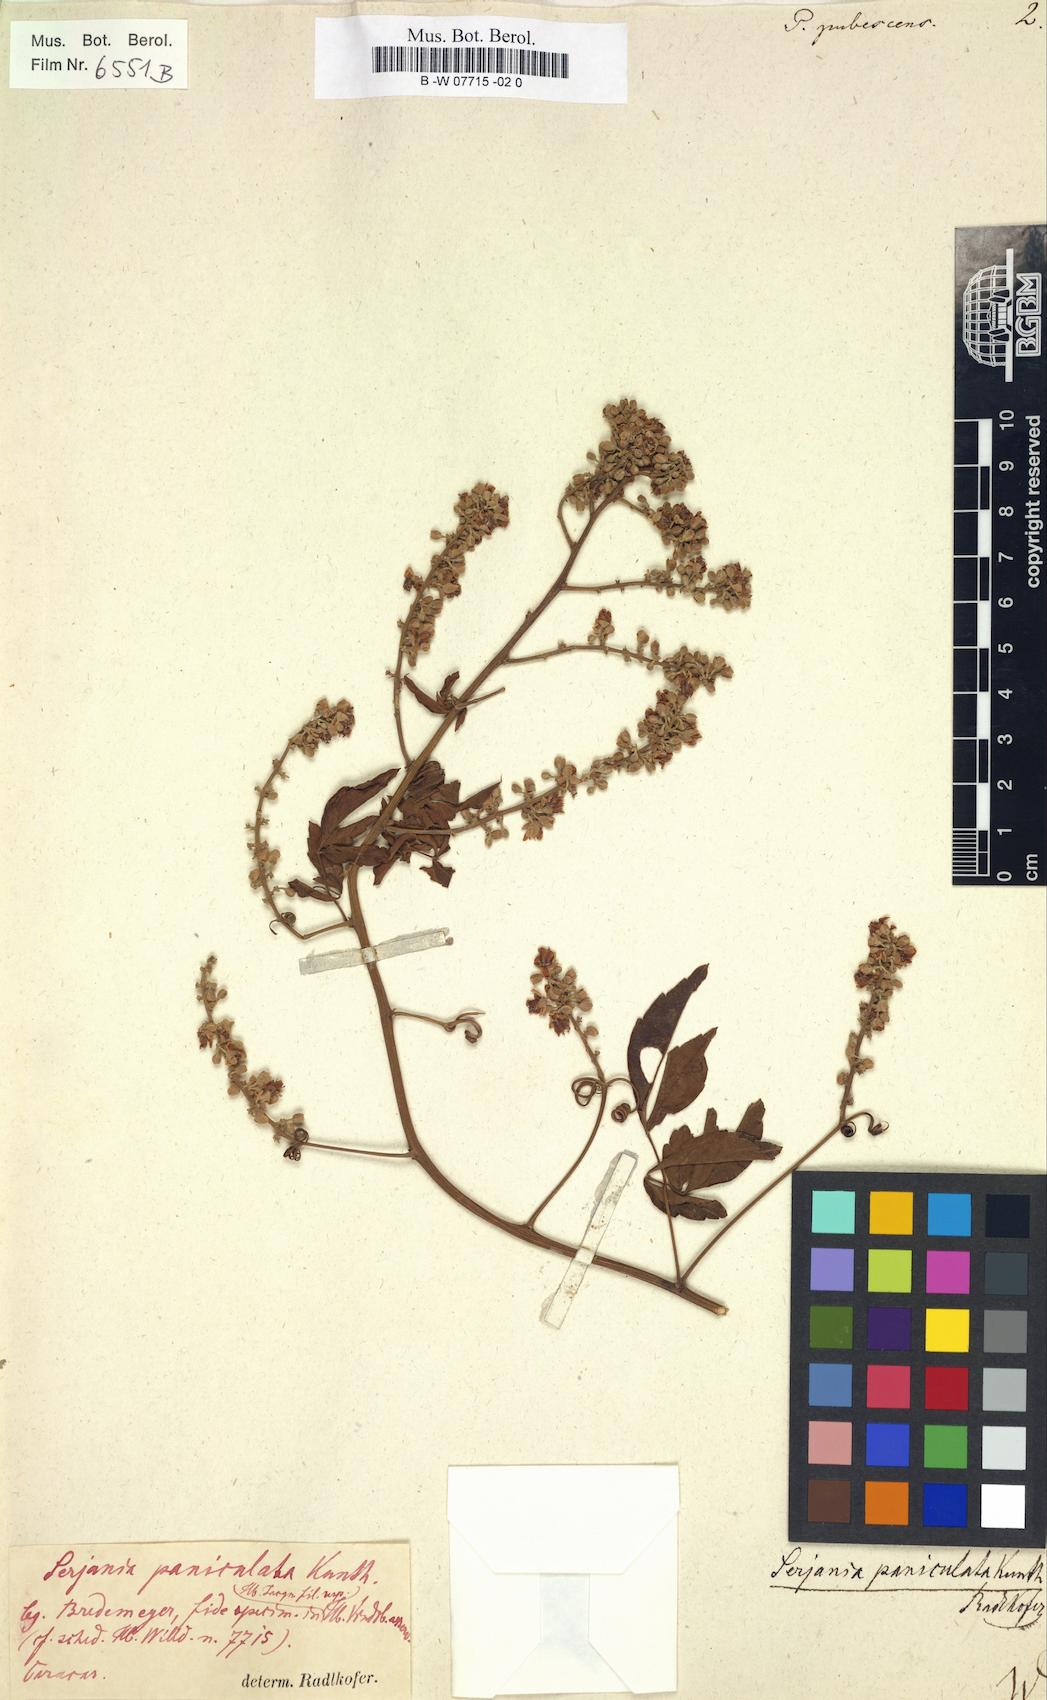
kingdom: Plantae
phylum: Tracheophyta
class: Magnoliopsida
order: Sapindales
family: Sapindaceae
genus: Paullinia
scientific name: Paullinia fuscescens
